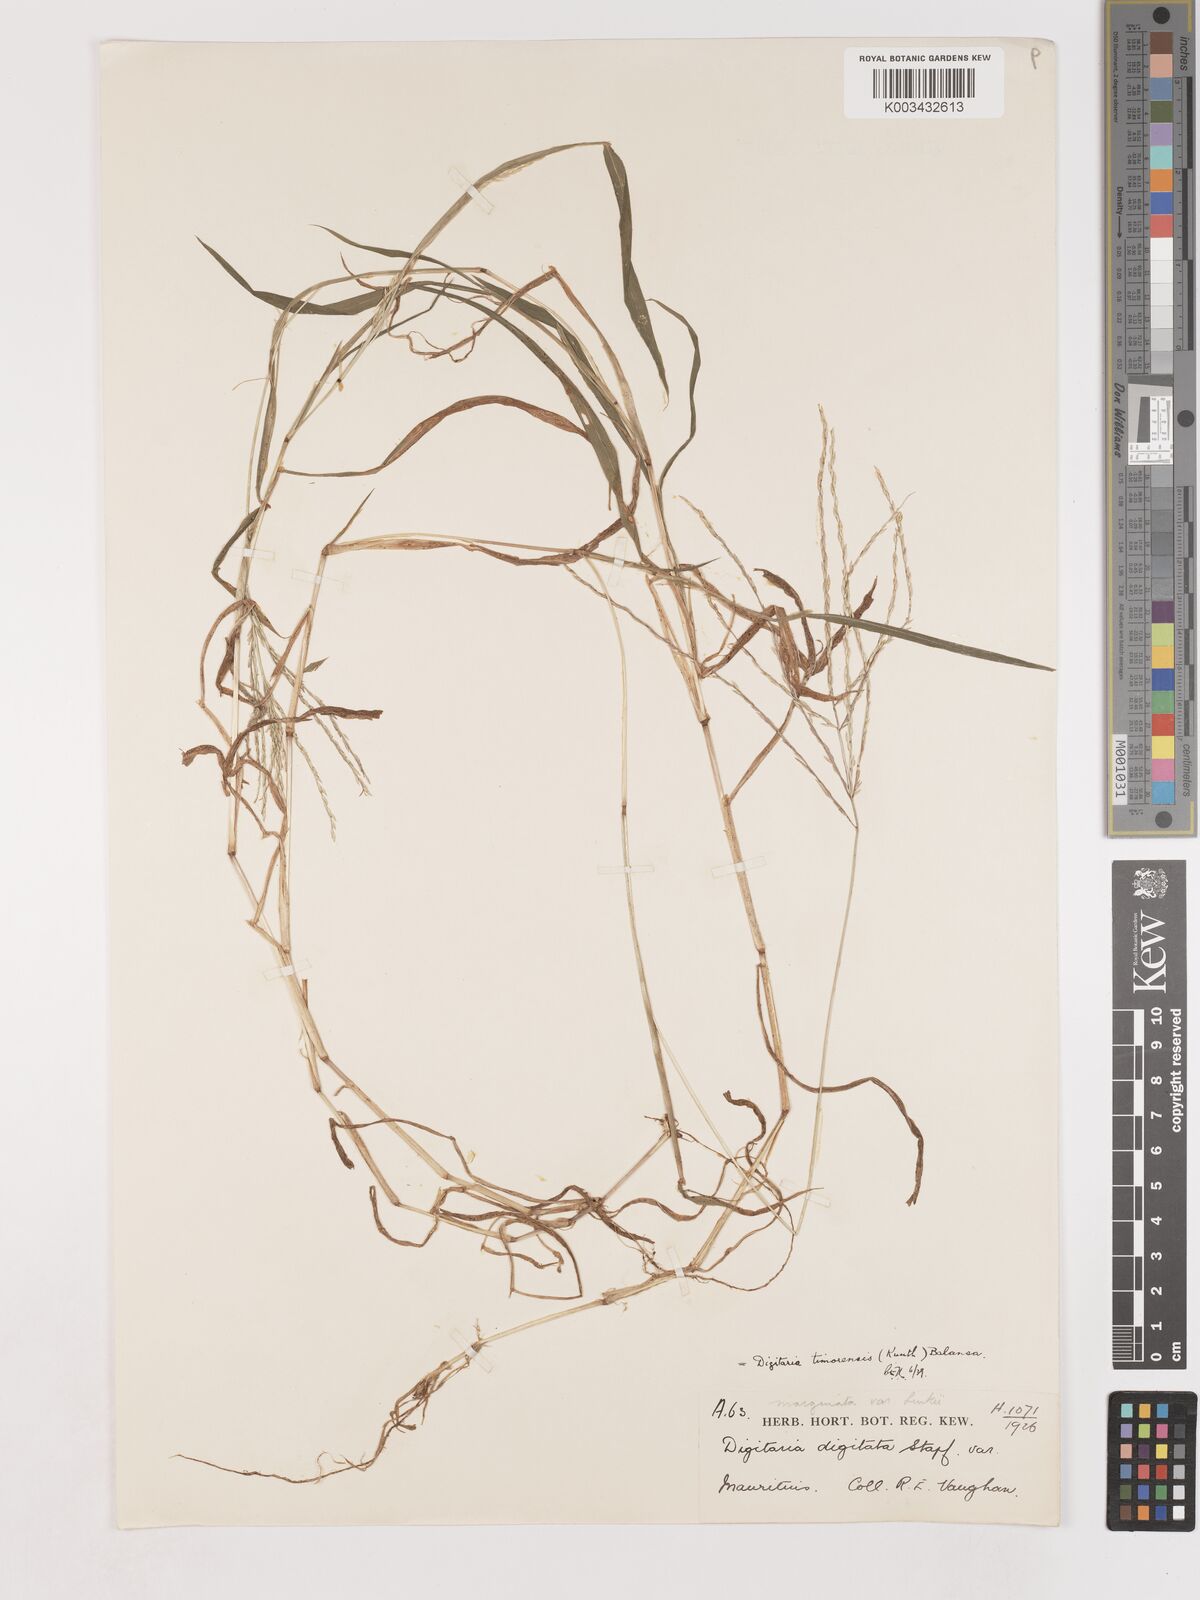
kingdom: Plantae
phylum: Tracheophyta
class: Liliopsida
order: Poales
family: Poaceae
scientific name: Poaceae
